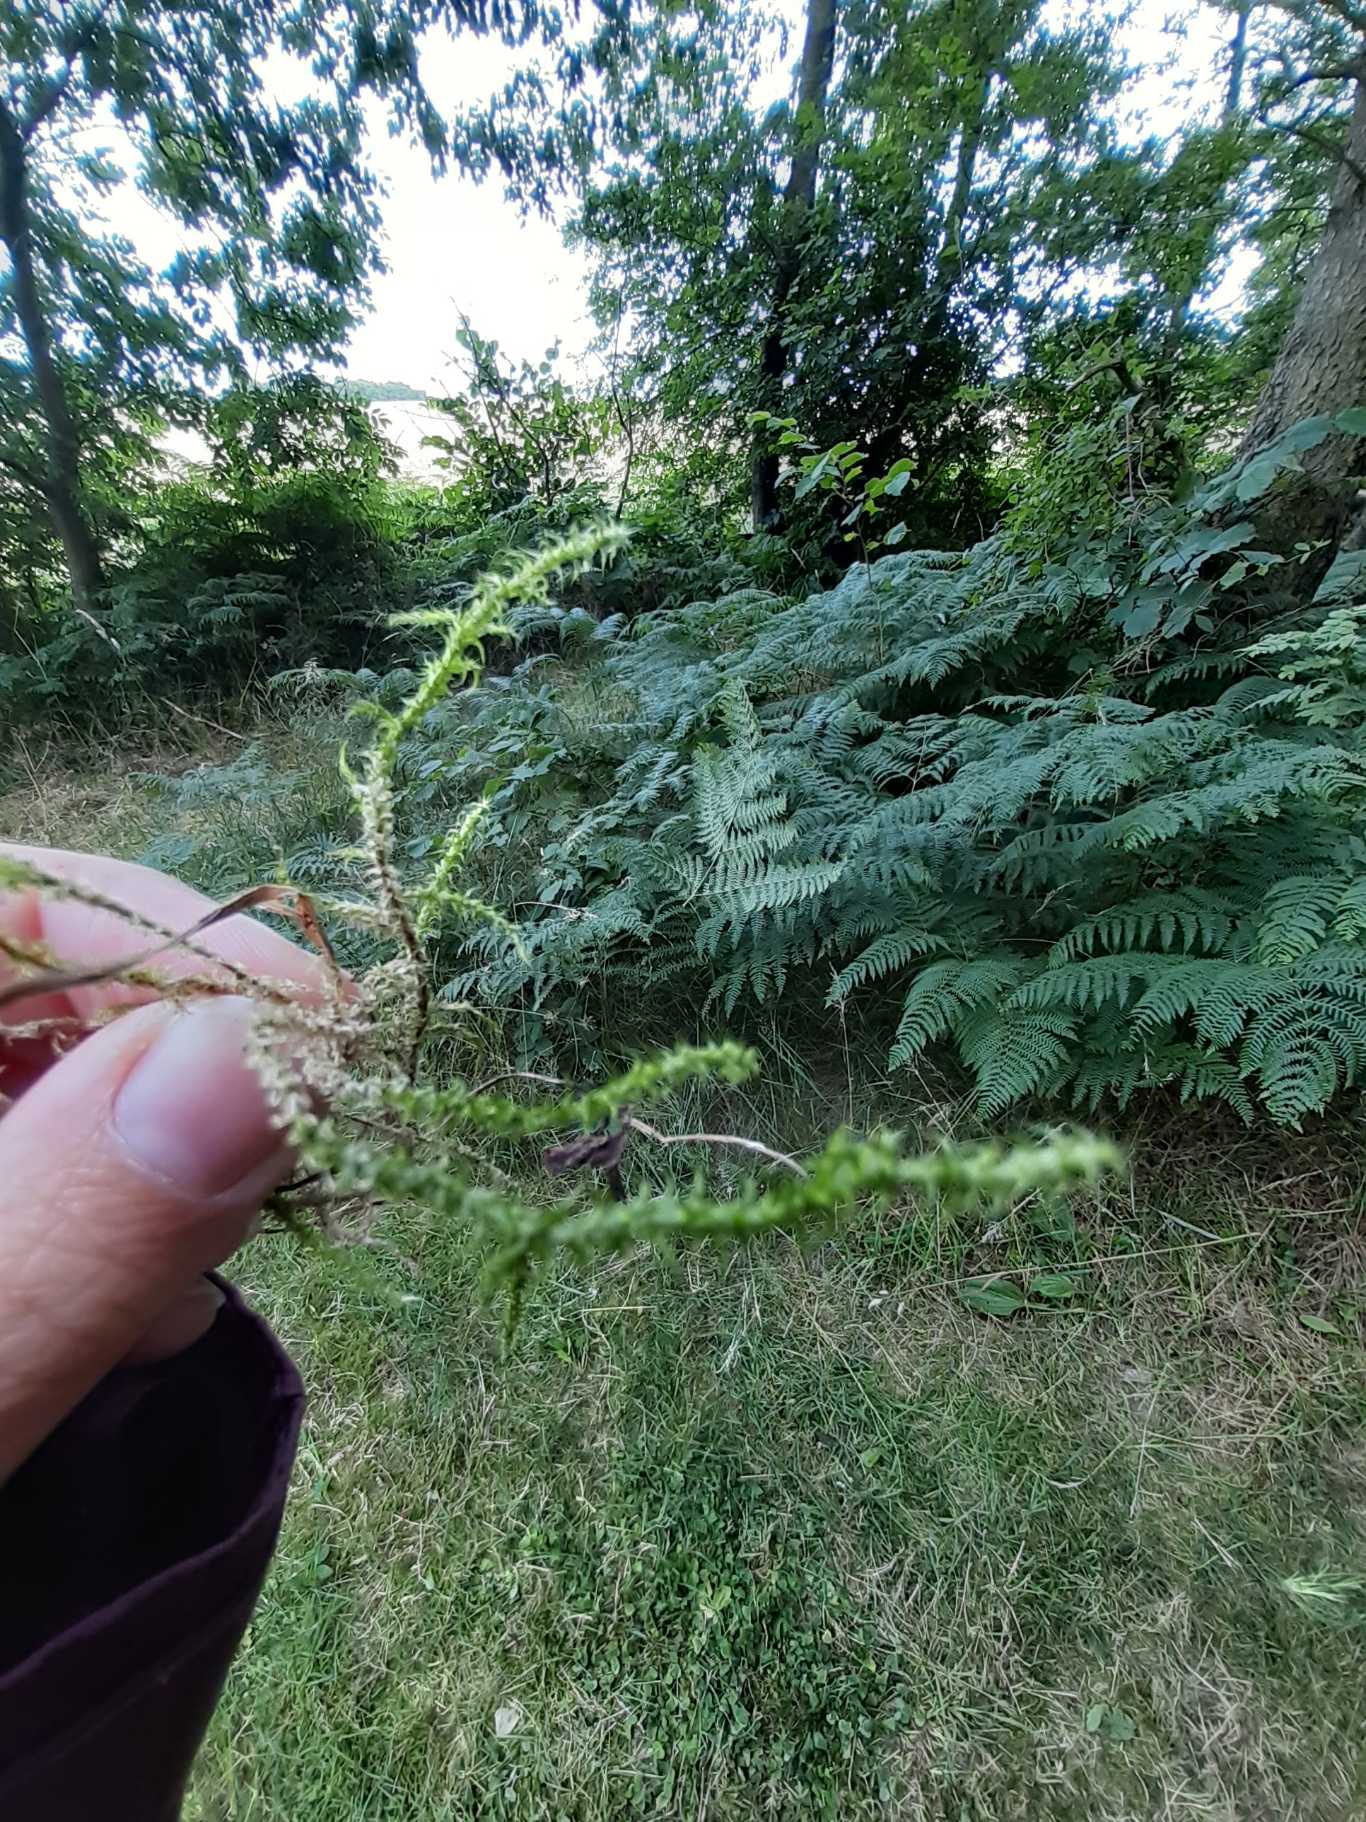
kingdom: Plantae
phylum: Bryophyta
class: Bryopsida
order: Hypnales
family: Hylocomiaceae
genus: Rhytidiadelphus
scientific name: Rhytidiadelphus squarrosus
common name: Plæne-kransemos
